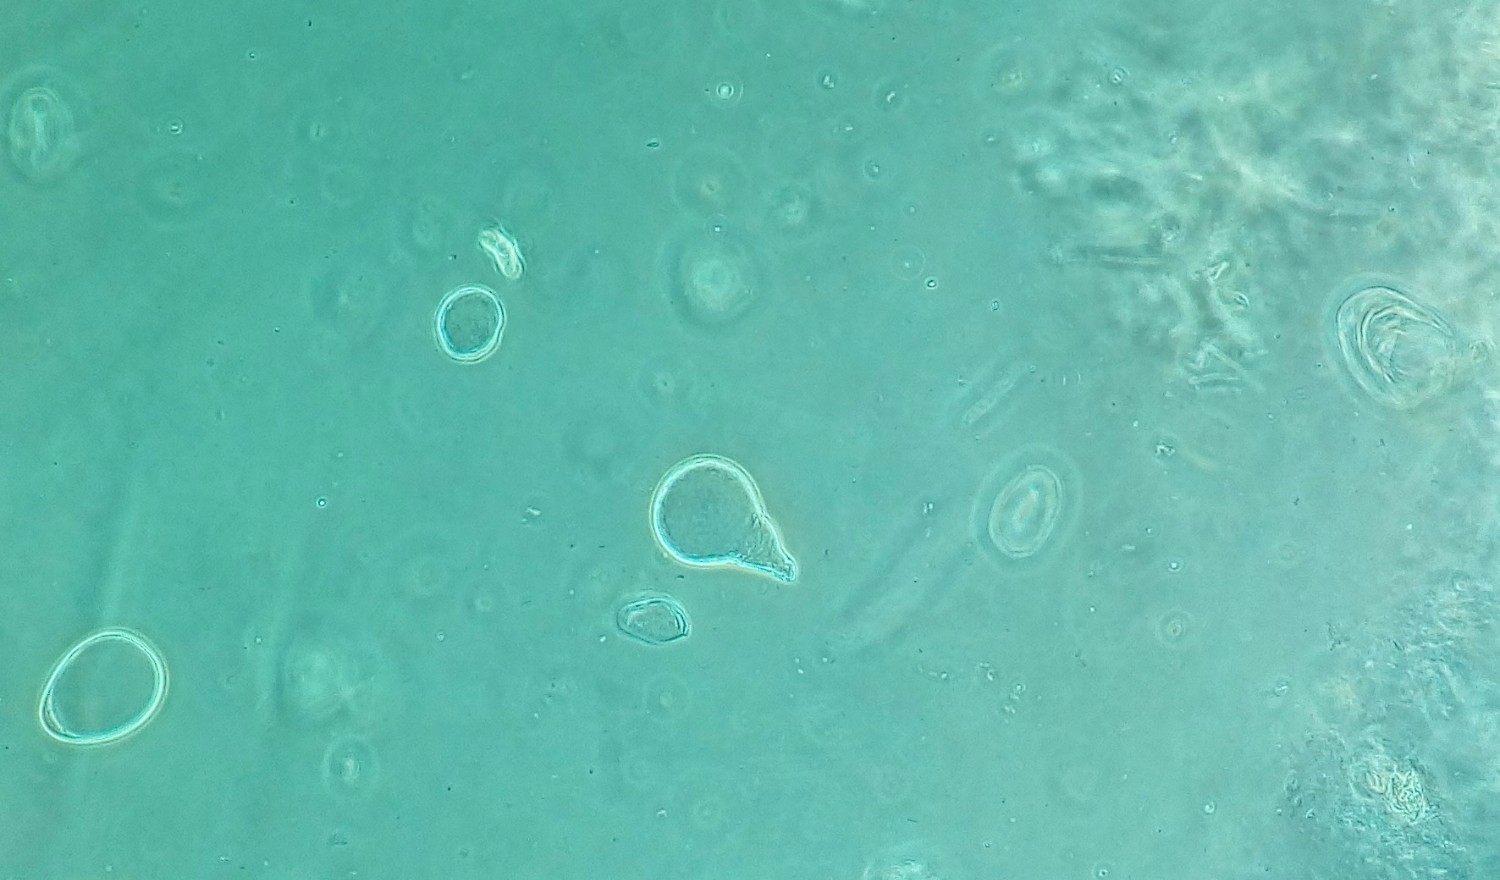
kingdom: Fungi
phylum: Basidiomycota
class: Agaricomycetes
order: Russulales
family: Russulaceae
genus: Russula
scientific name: Russula ionochlora
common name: violetgrøn skørhat
